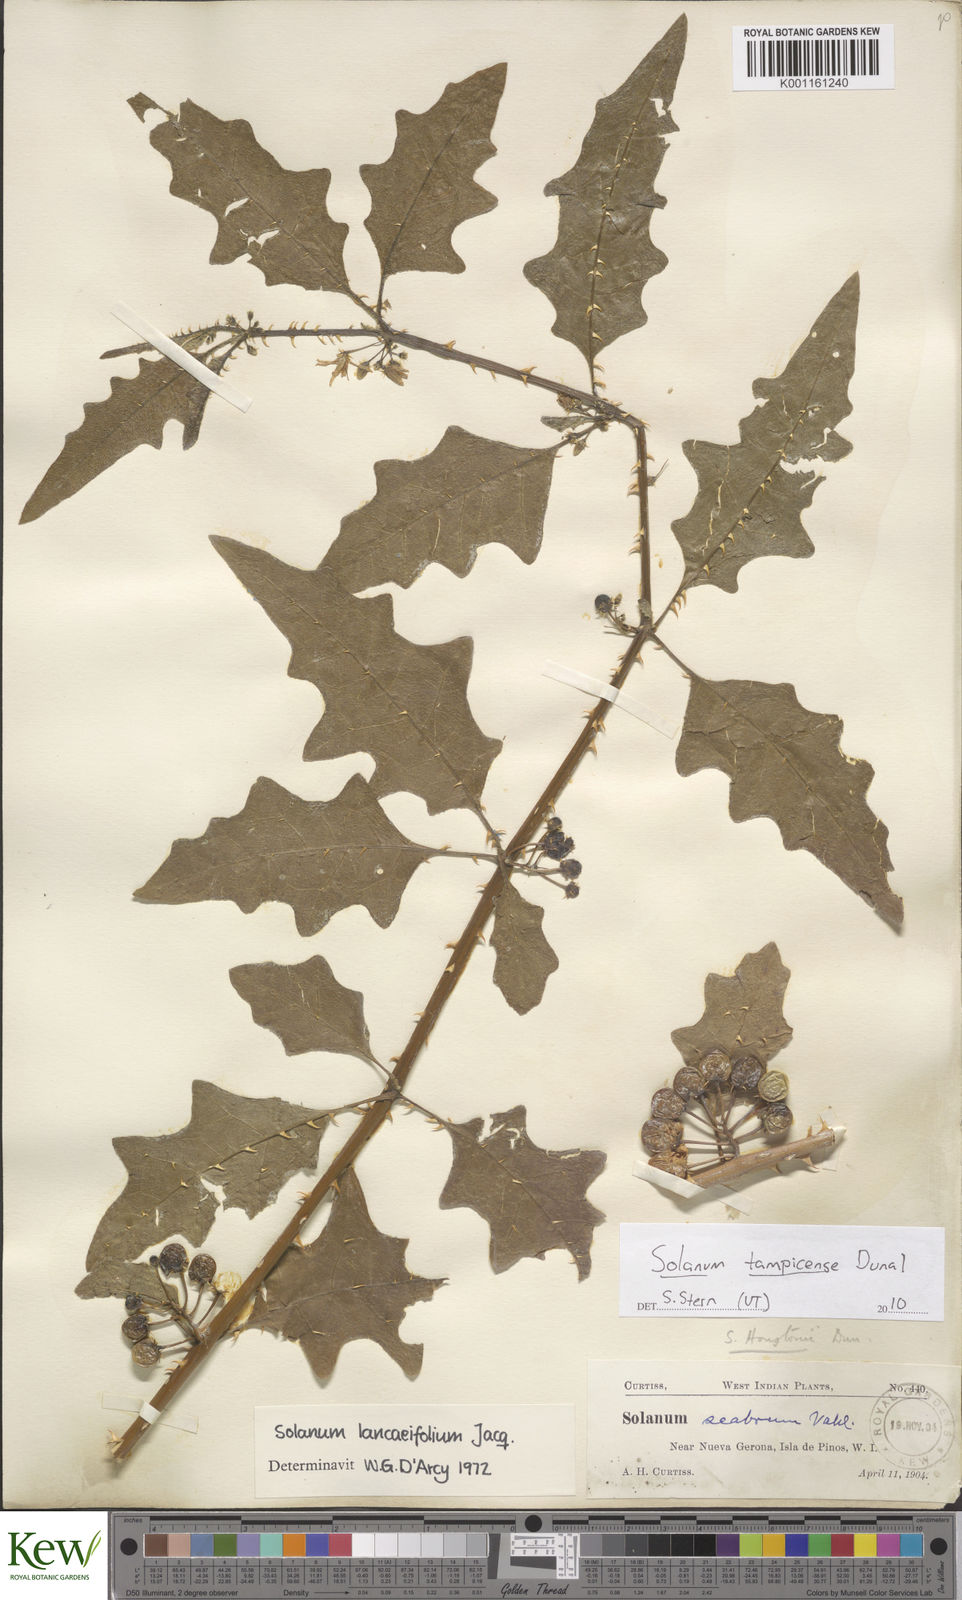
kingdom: Plantae
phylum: Tracheophyta
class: Magnoliopsida
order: Solanales
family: Solanaceae
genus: Solanum
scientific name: Solanum tampicense
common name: Scrambling nightshade
